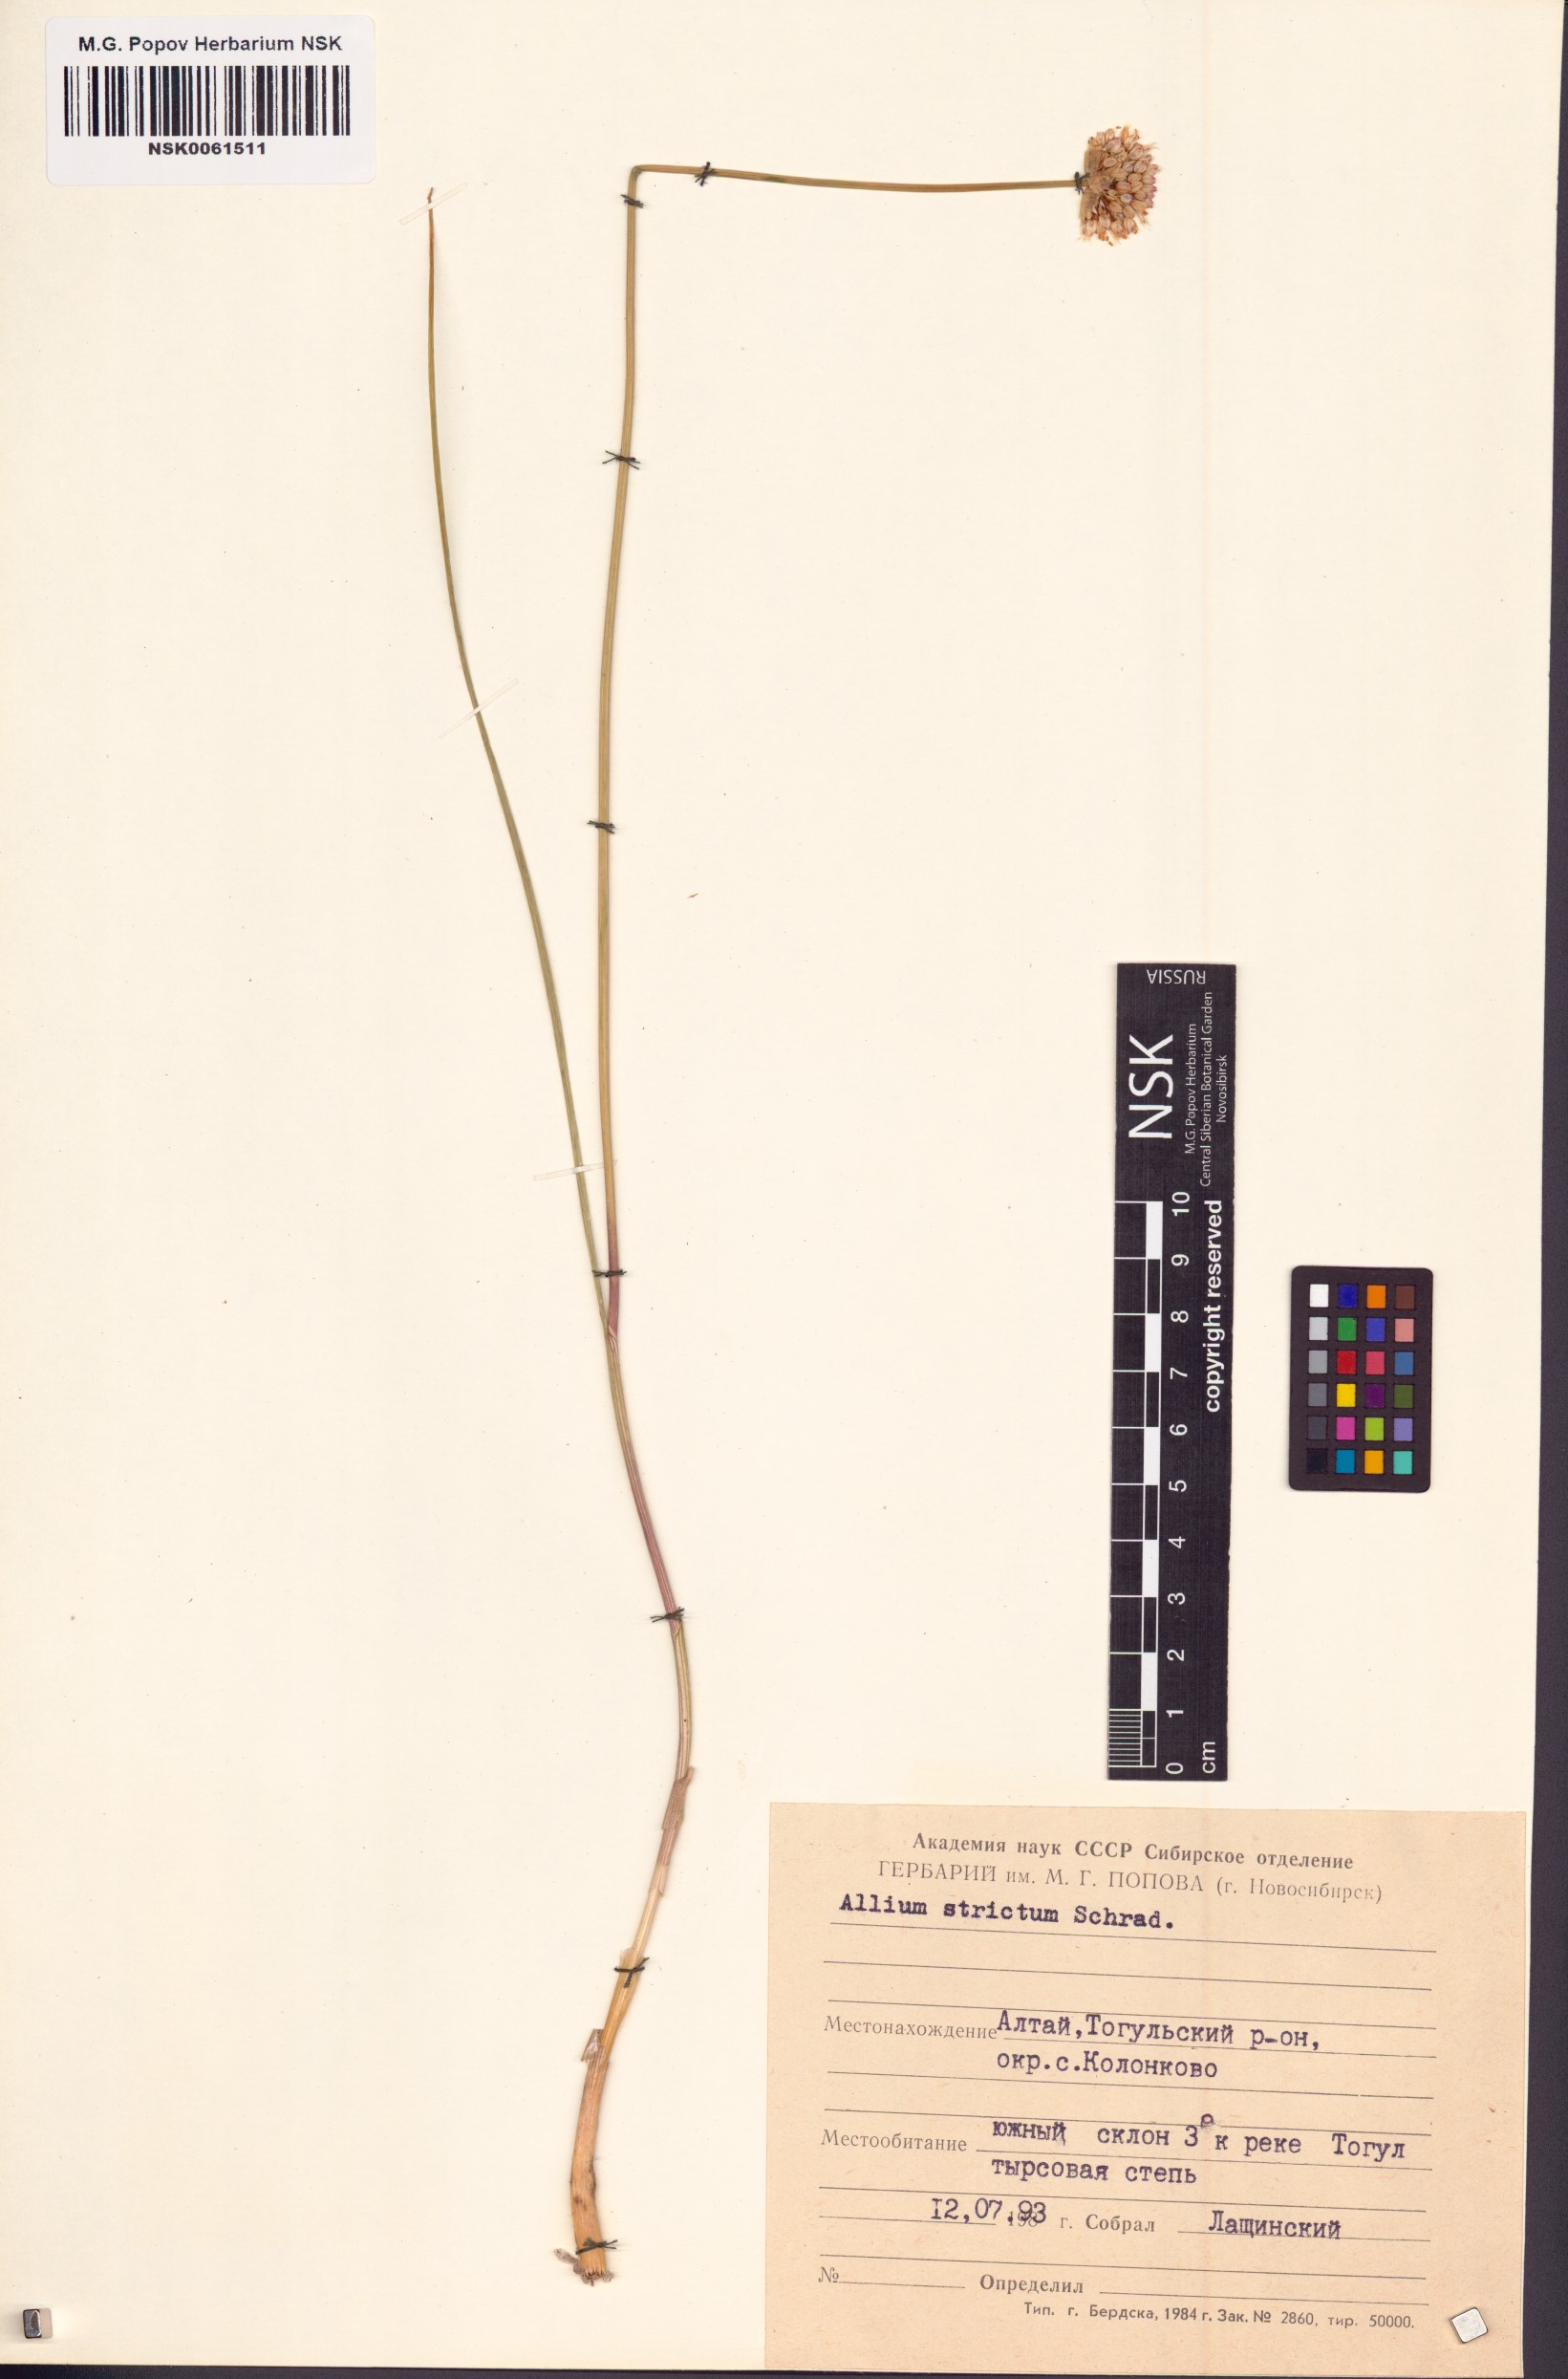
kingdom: Plantae
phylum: Tracheophyta
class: Liliopsida
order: Asparagales
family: Amaryllidaceae
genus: Allium
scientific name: Allium strictum
